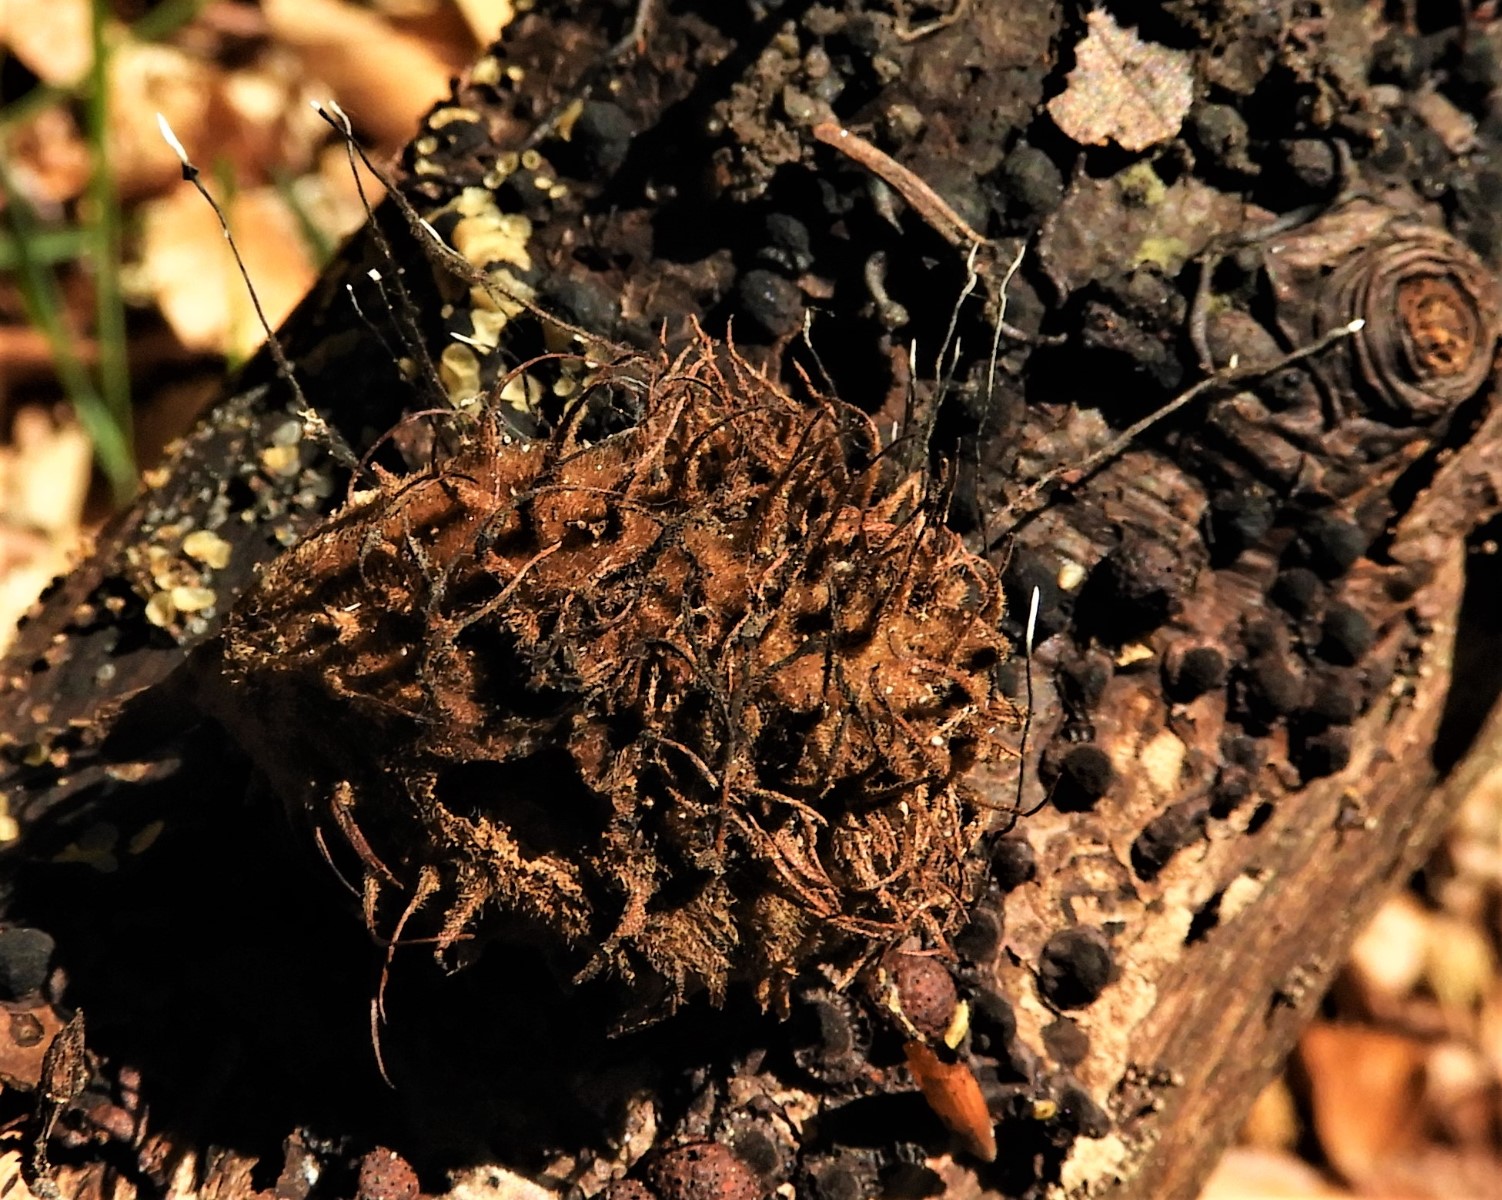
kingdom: Fungi
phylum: Ascomycota
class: Sordariomycetes
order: Xylariales
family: Xylariaceae
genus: Xylaria
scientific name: Xylaria carpophila
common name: bogskål-stødsvamp
